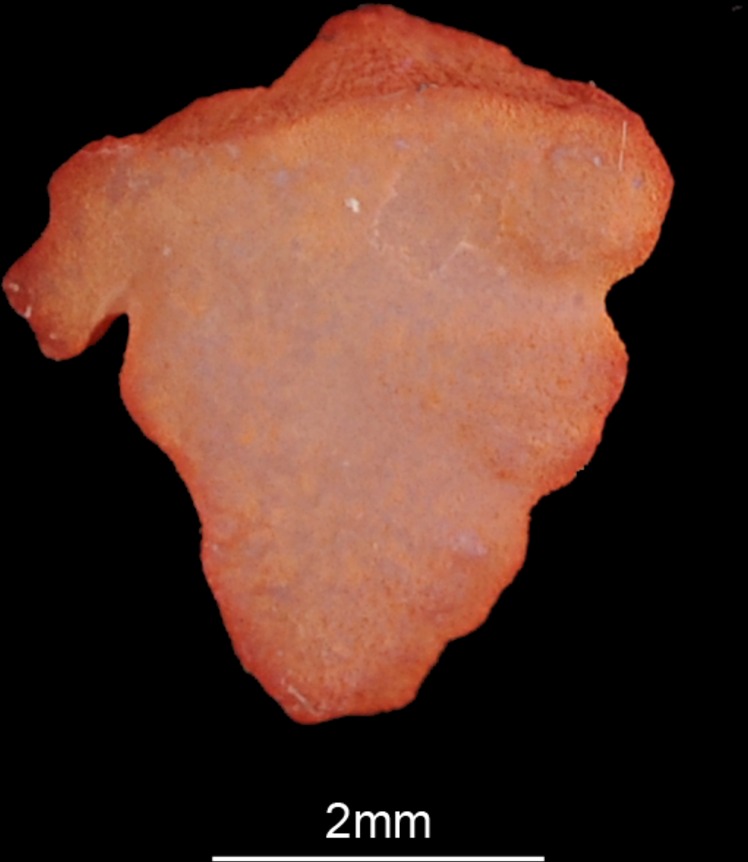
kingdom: Animalia
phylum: Chordata
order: Perciformes
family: Sciaenidae
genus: Pseudotolithus
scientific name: Pseudotolithus senegalensis
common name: Cassava croaker
